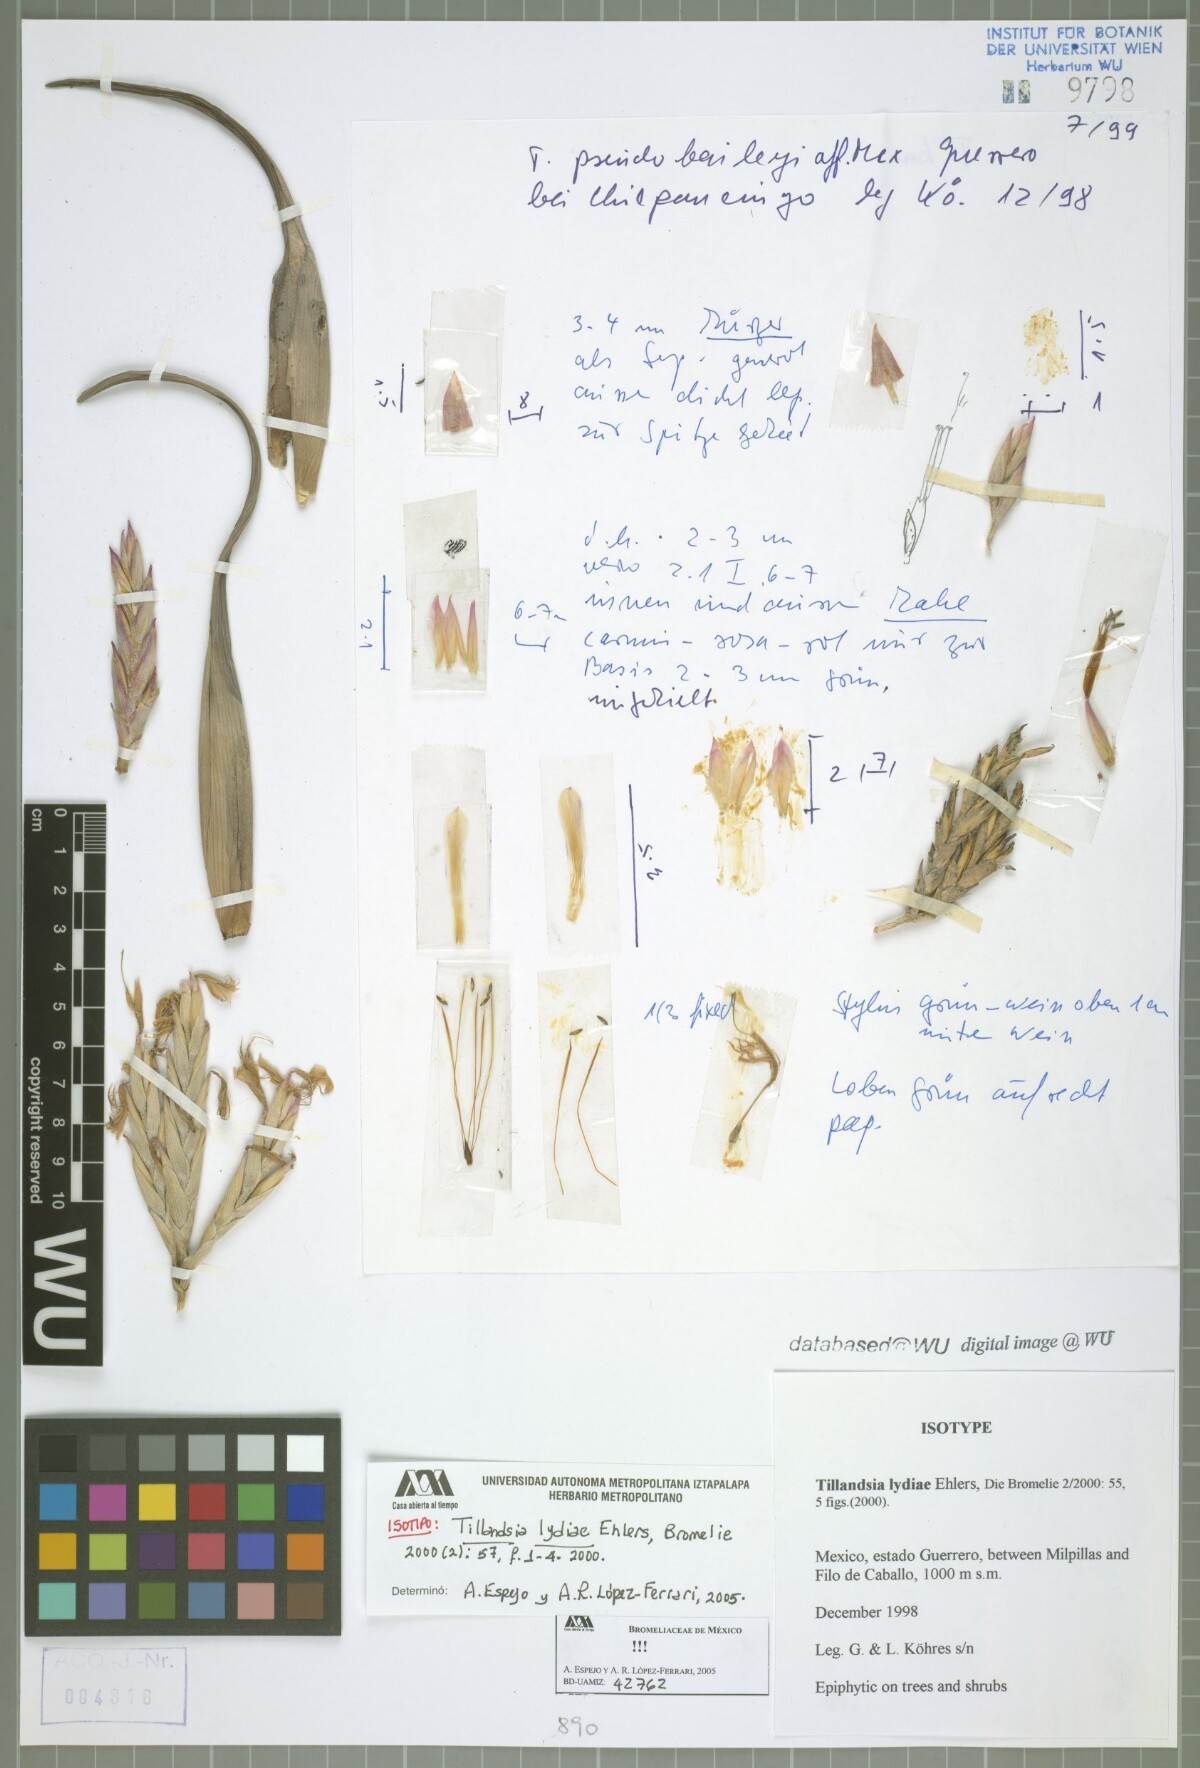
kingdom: Plantae
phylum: Tracheophyta
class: Liliopsida
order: Poales
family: Bromeliaceae
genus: Tillandsia
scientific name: Tillandsia lydiae
